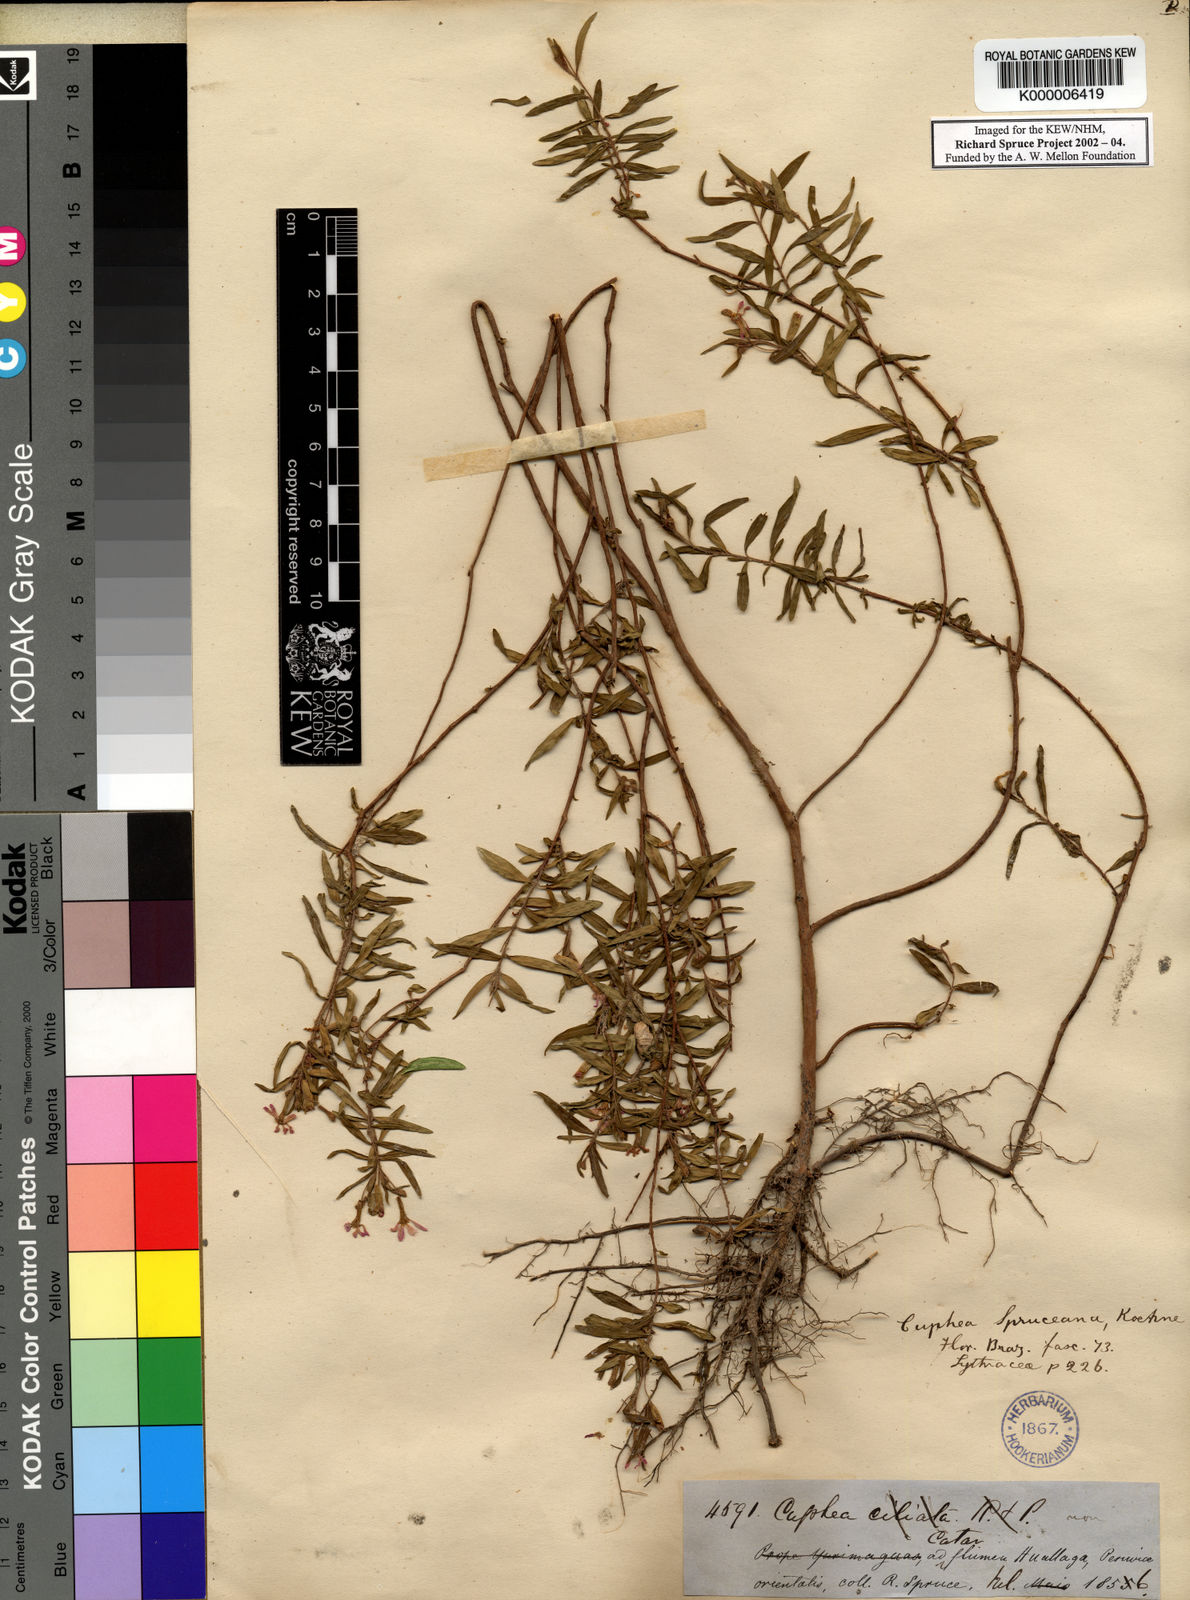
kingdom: Plantae
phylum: Tracheophyta
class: Magnoliopsida
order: Myrtales
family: Lythraceae
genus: Cuphea
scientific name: Cuphea spruceana
